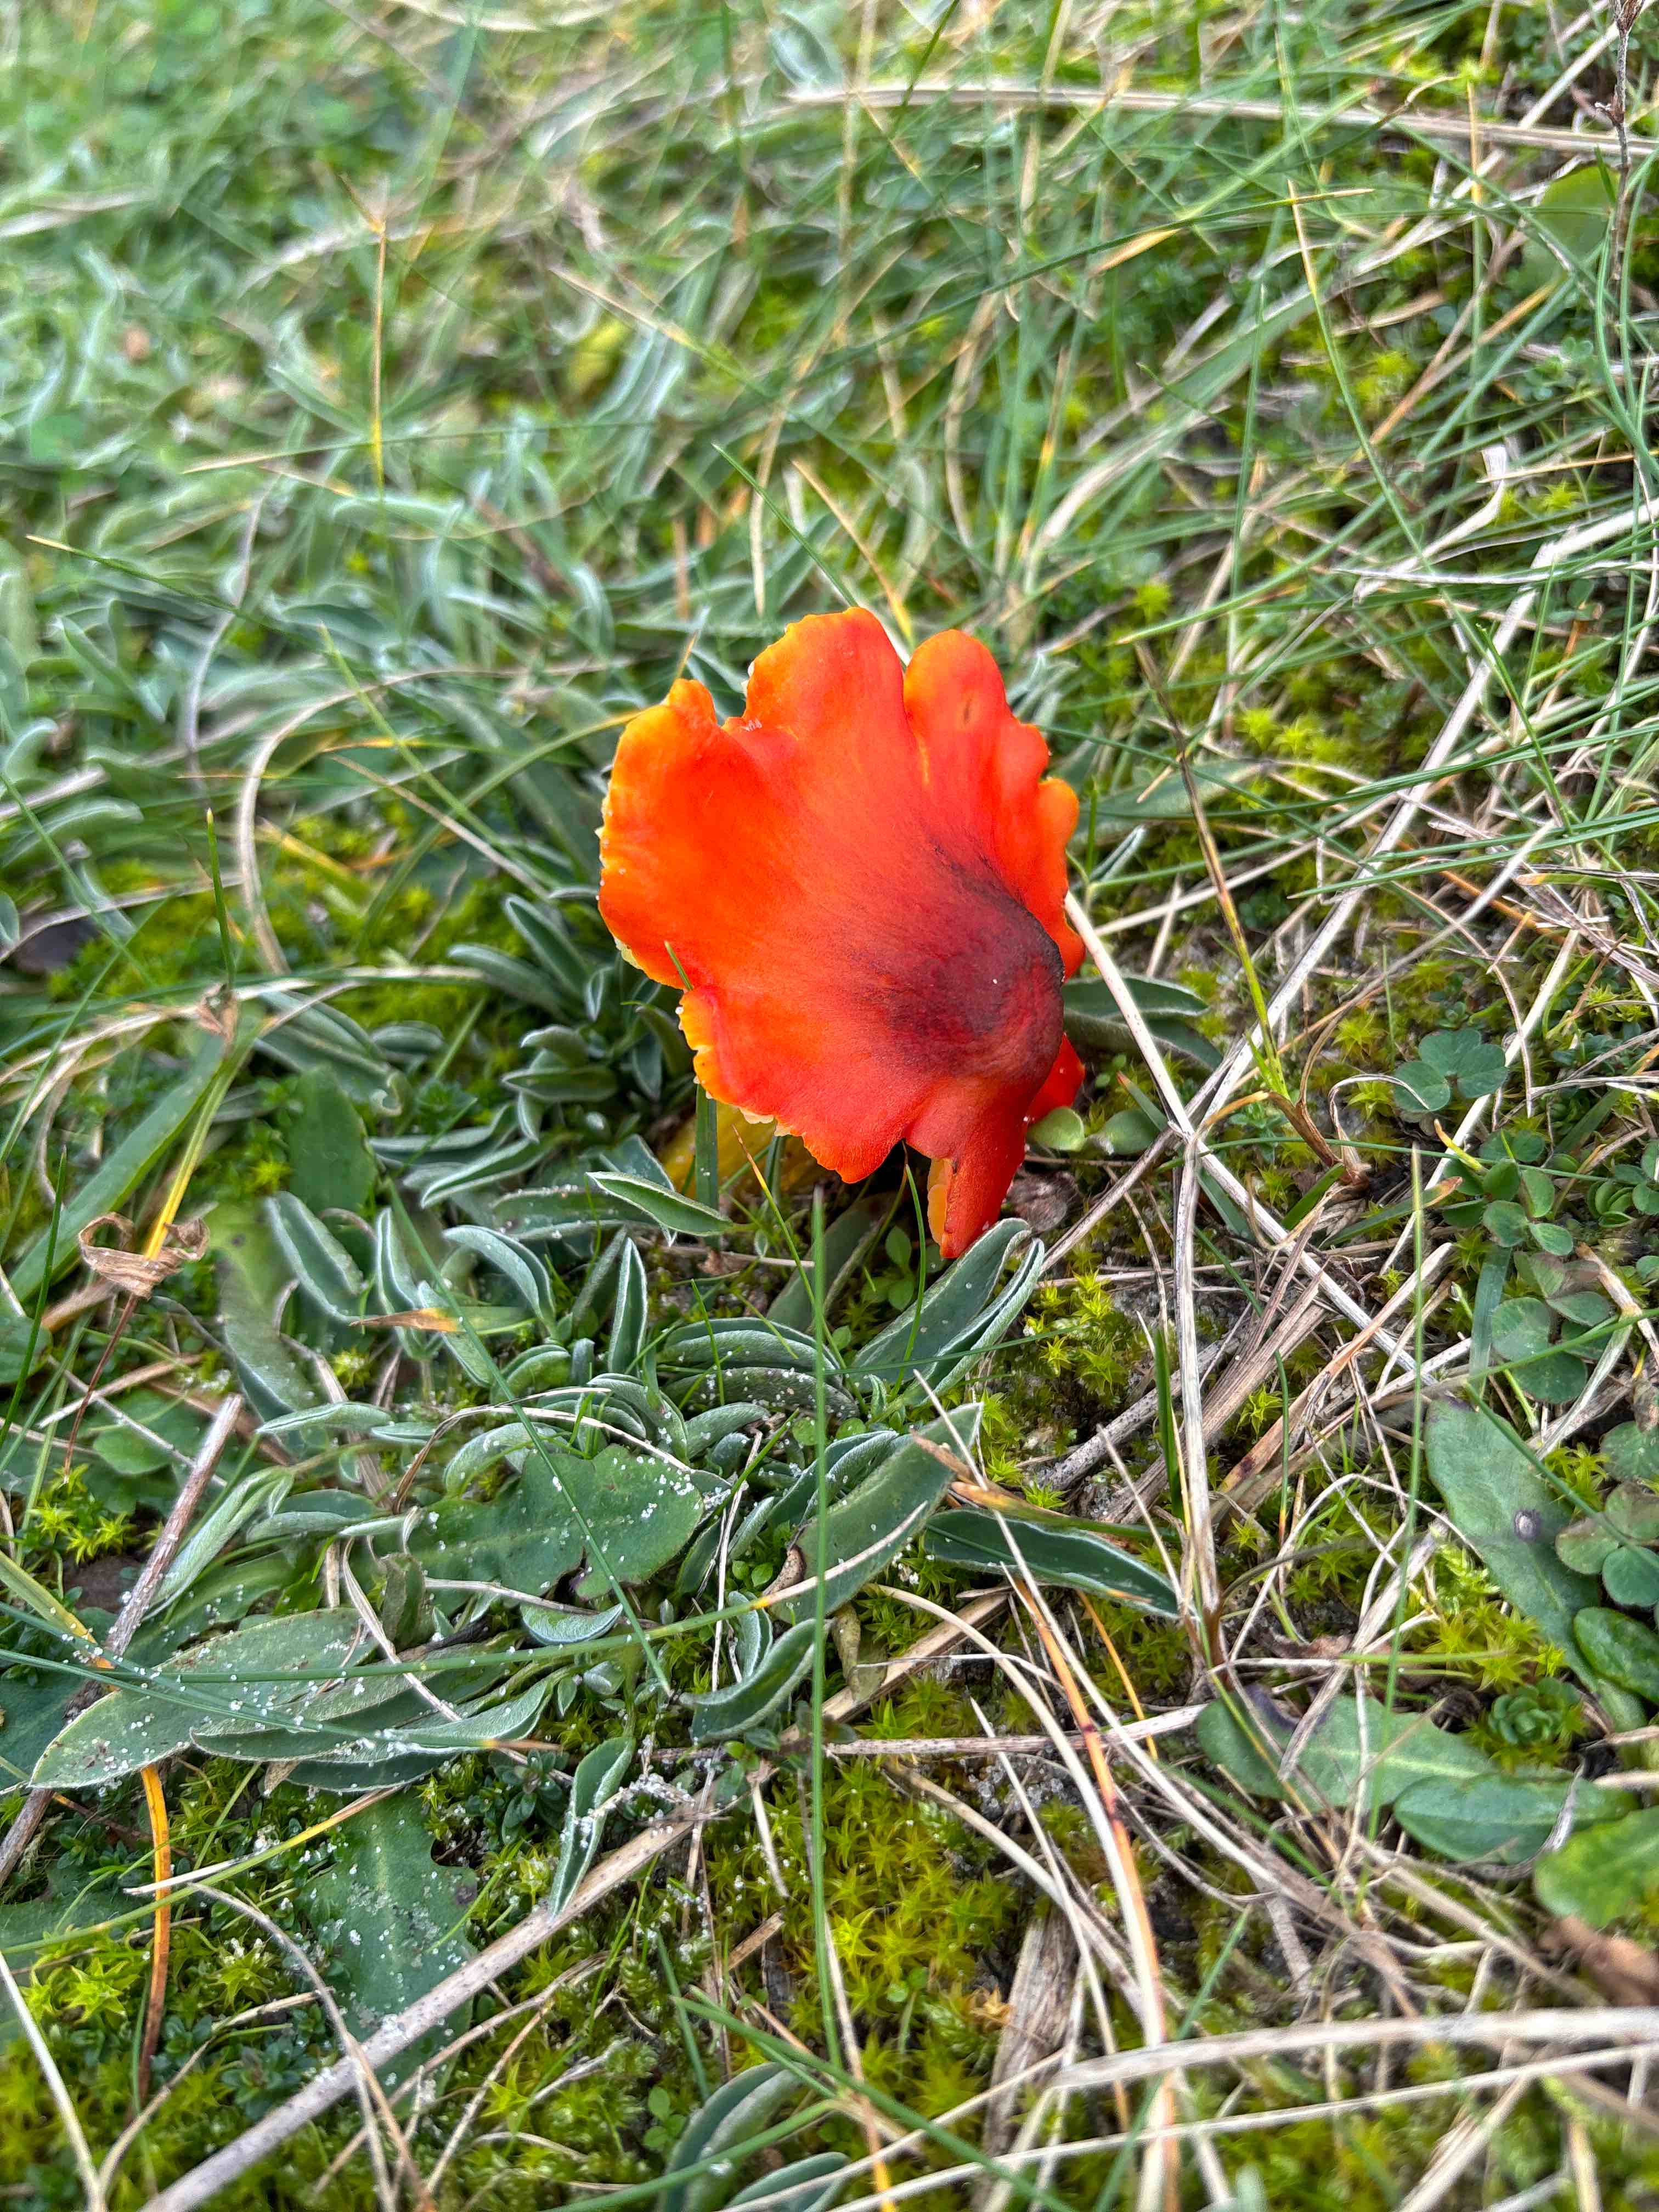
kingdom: Fungi
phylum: Basidiomycota
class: Agaricomycetes
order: Agaricales
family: Hygrophoraceae
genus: Hygrocybe
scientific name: Hygrocybe conica
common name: kegle-vokshat
